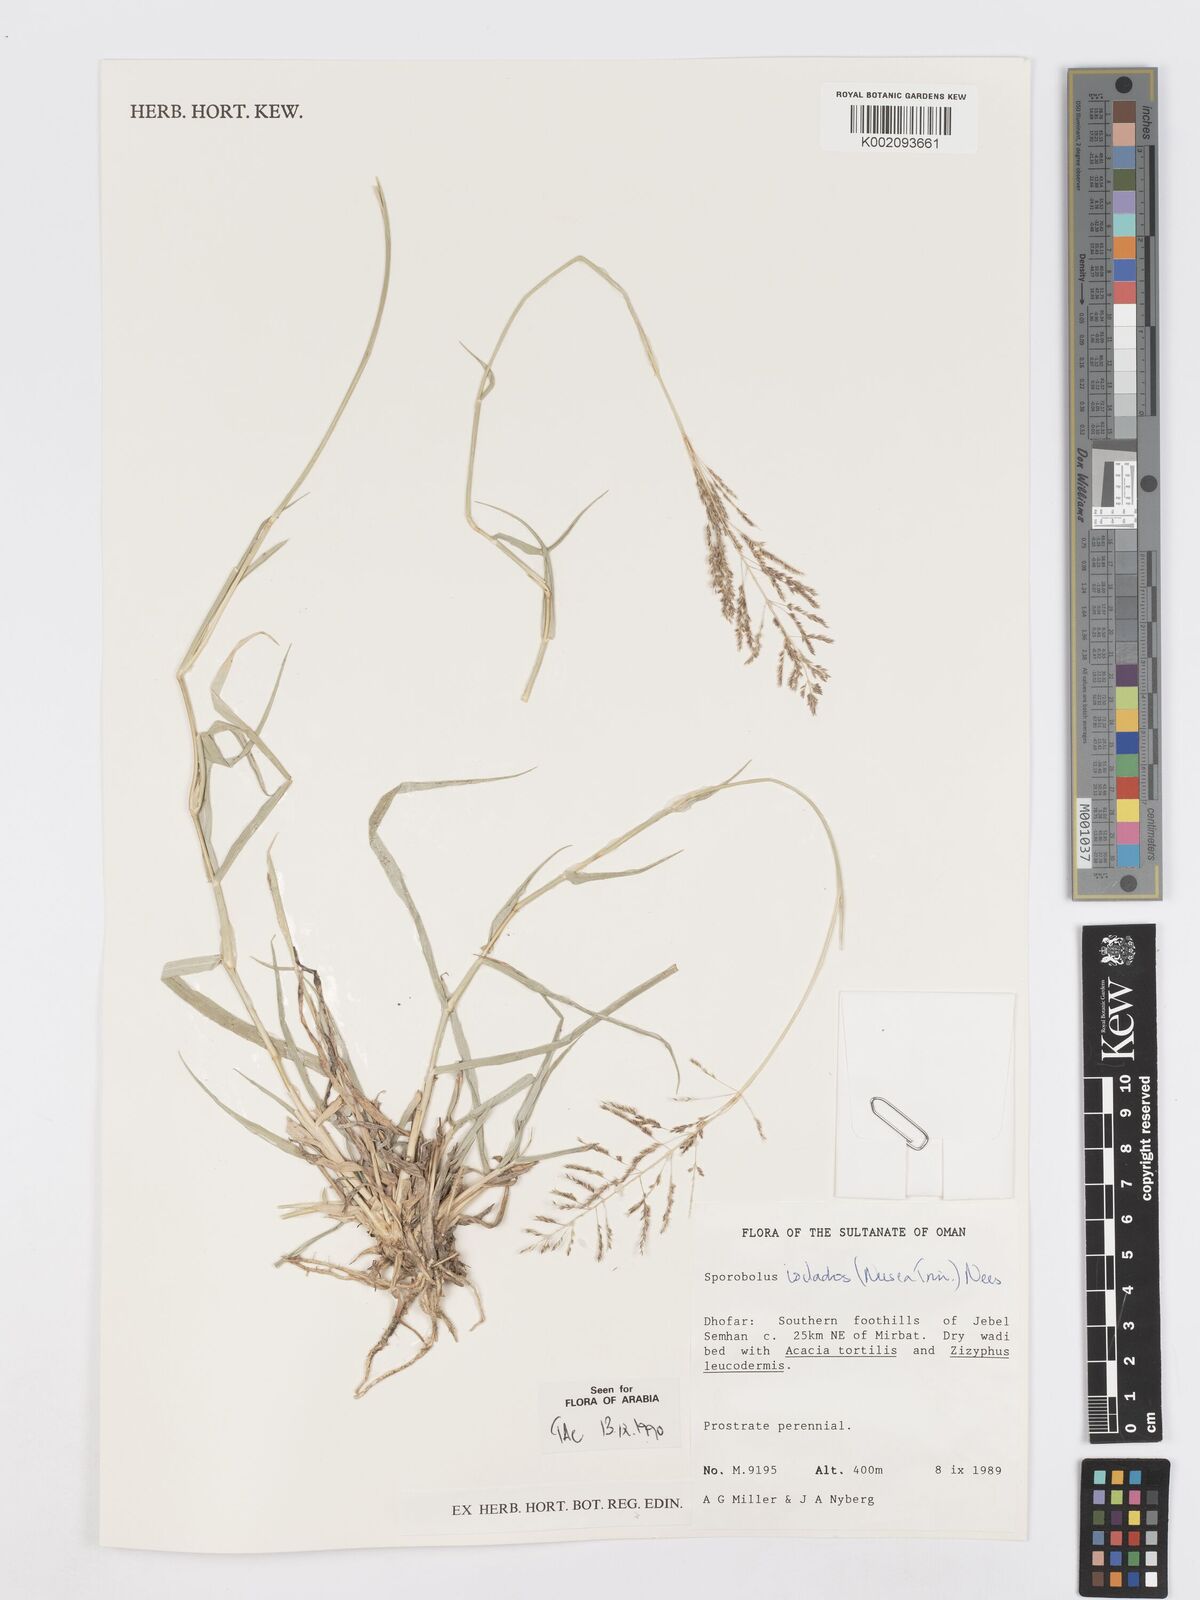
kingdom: Plantae
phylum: Tracheophyta
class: Liliopsida
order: Poales
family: Poaceae
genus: Sporobolus
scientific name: Sporobolus ioclados
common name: Pan dropseed
